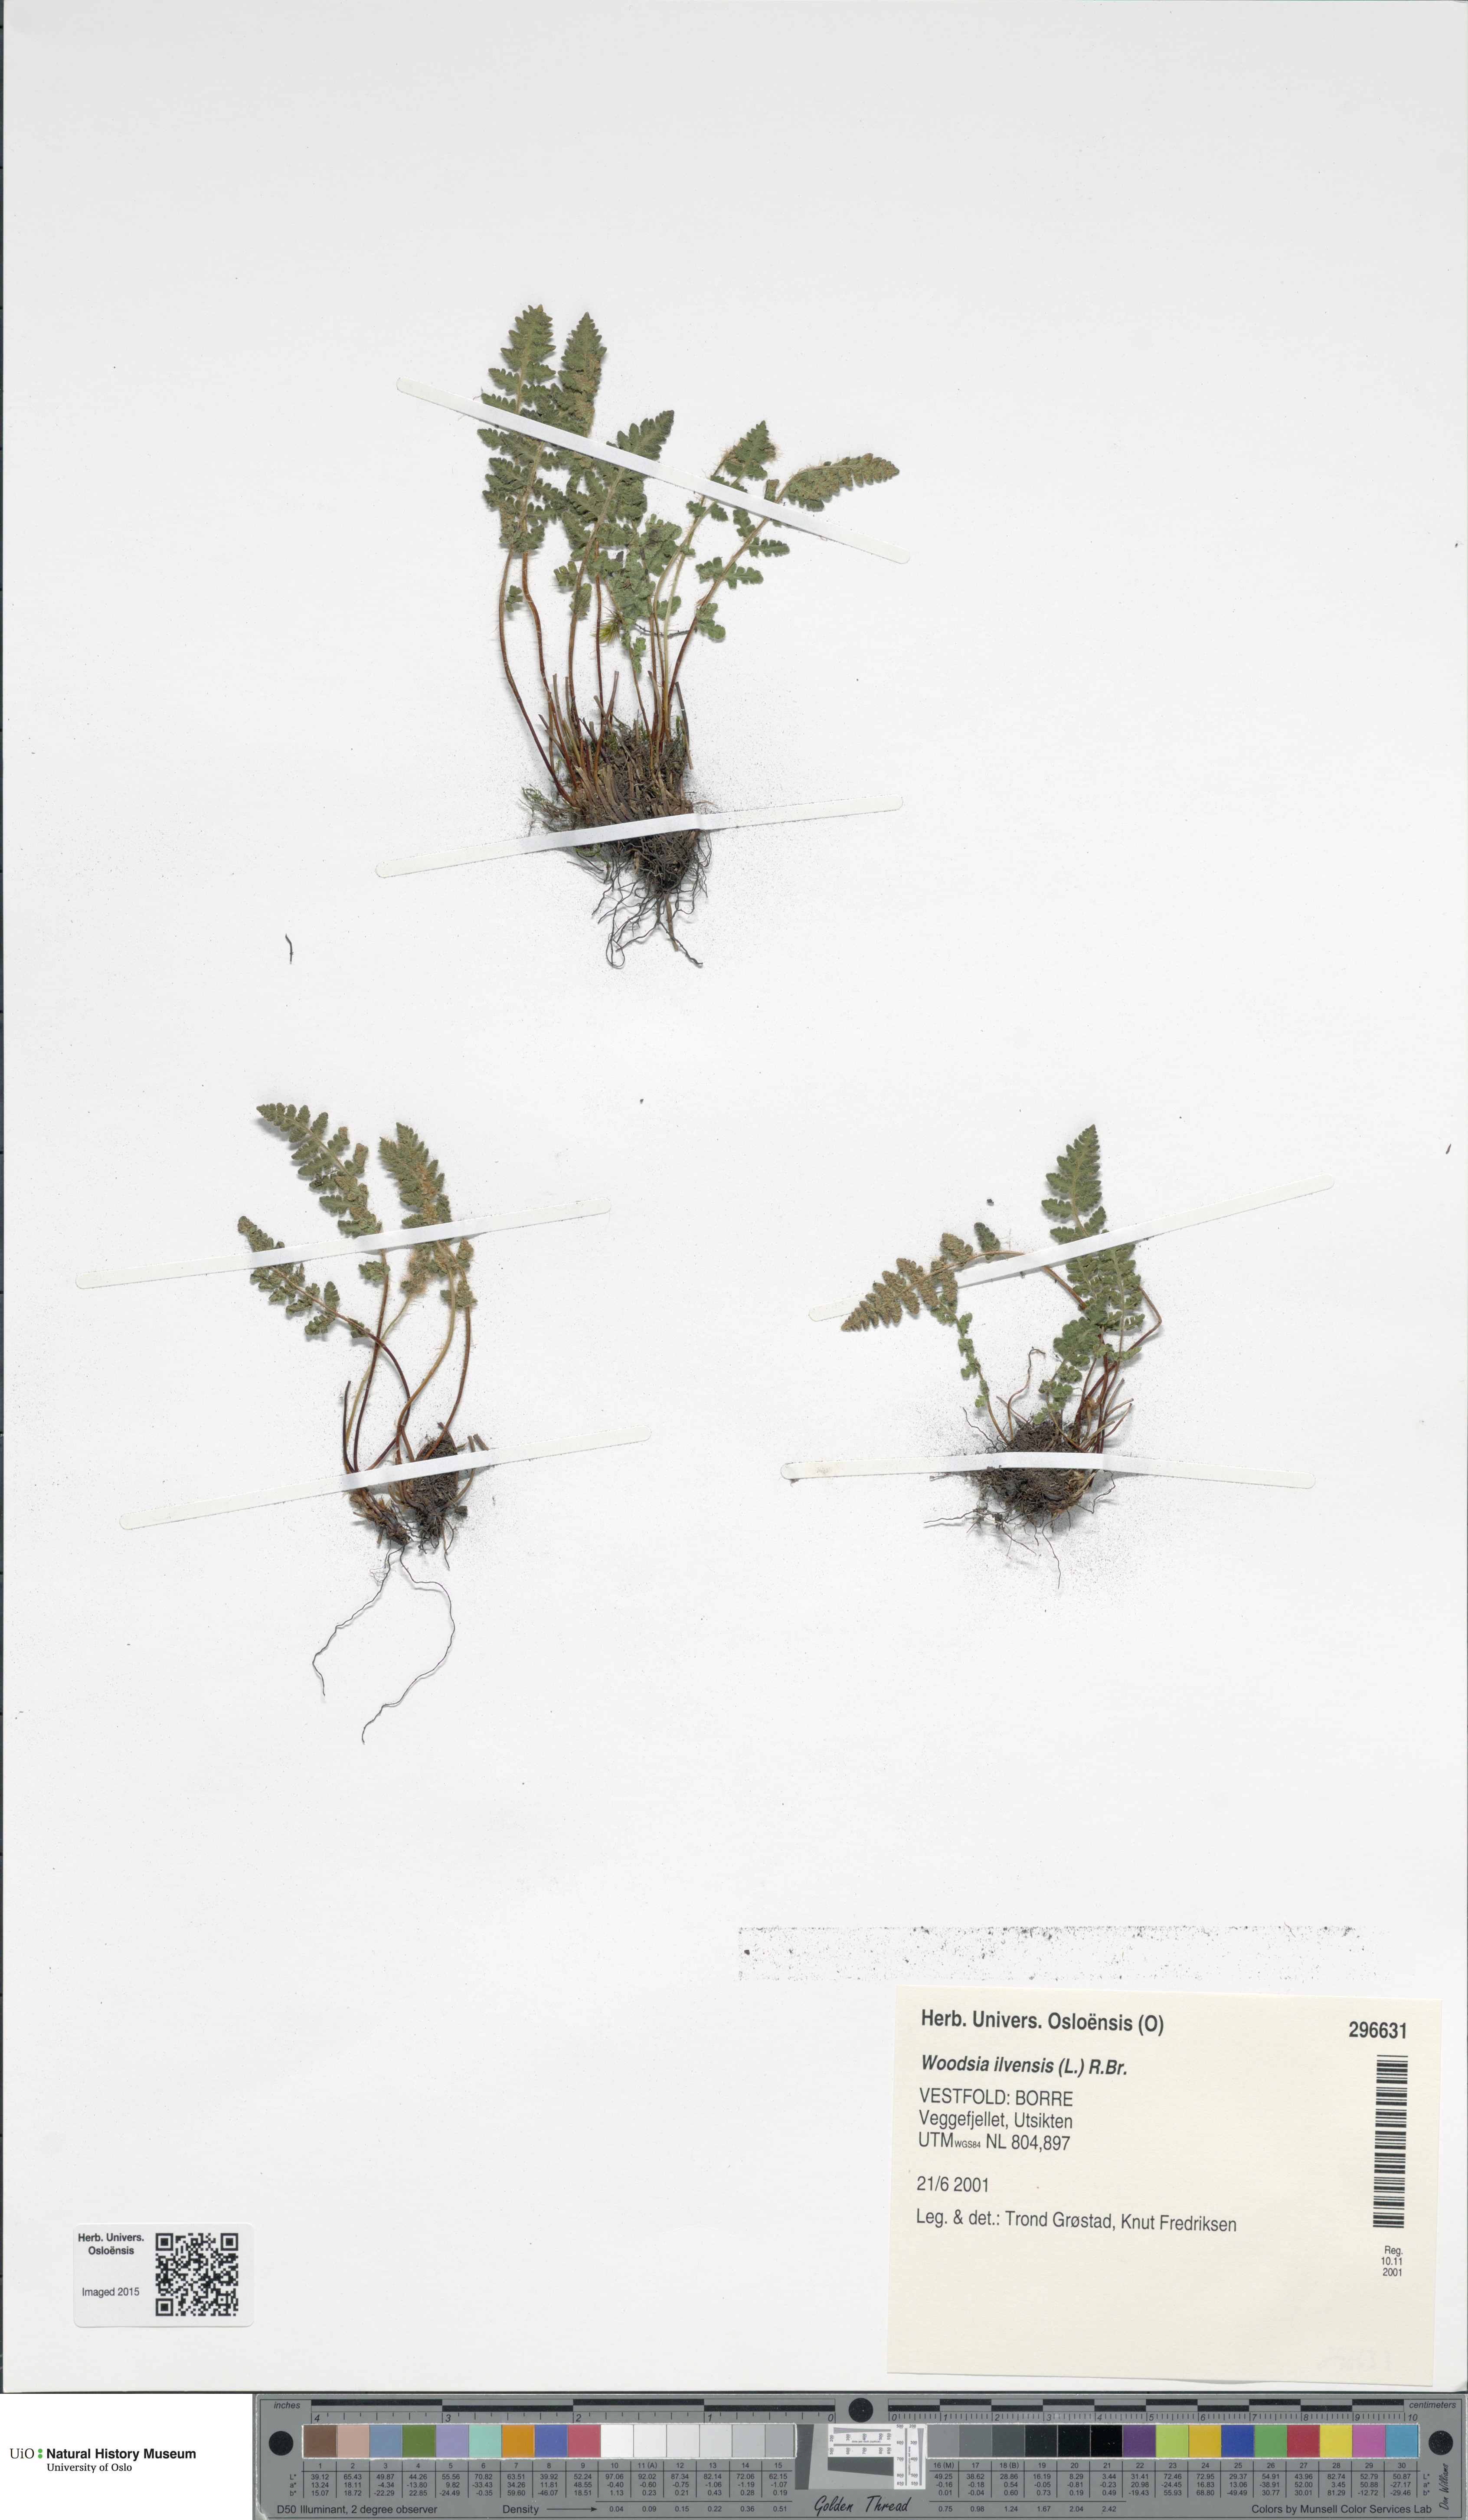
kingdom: Plantae
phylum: Tracheophyta
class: Polypodiopsida
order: Polypodiales
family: Woodsiaceae
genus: Woodsia
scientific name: Woodsia ilvensis
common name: Fragrant woodsia
